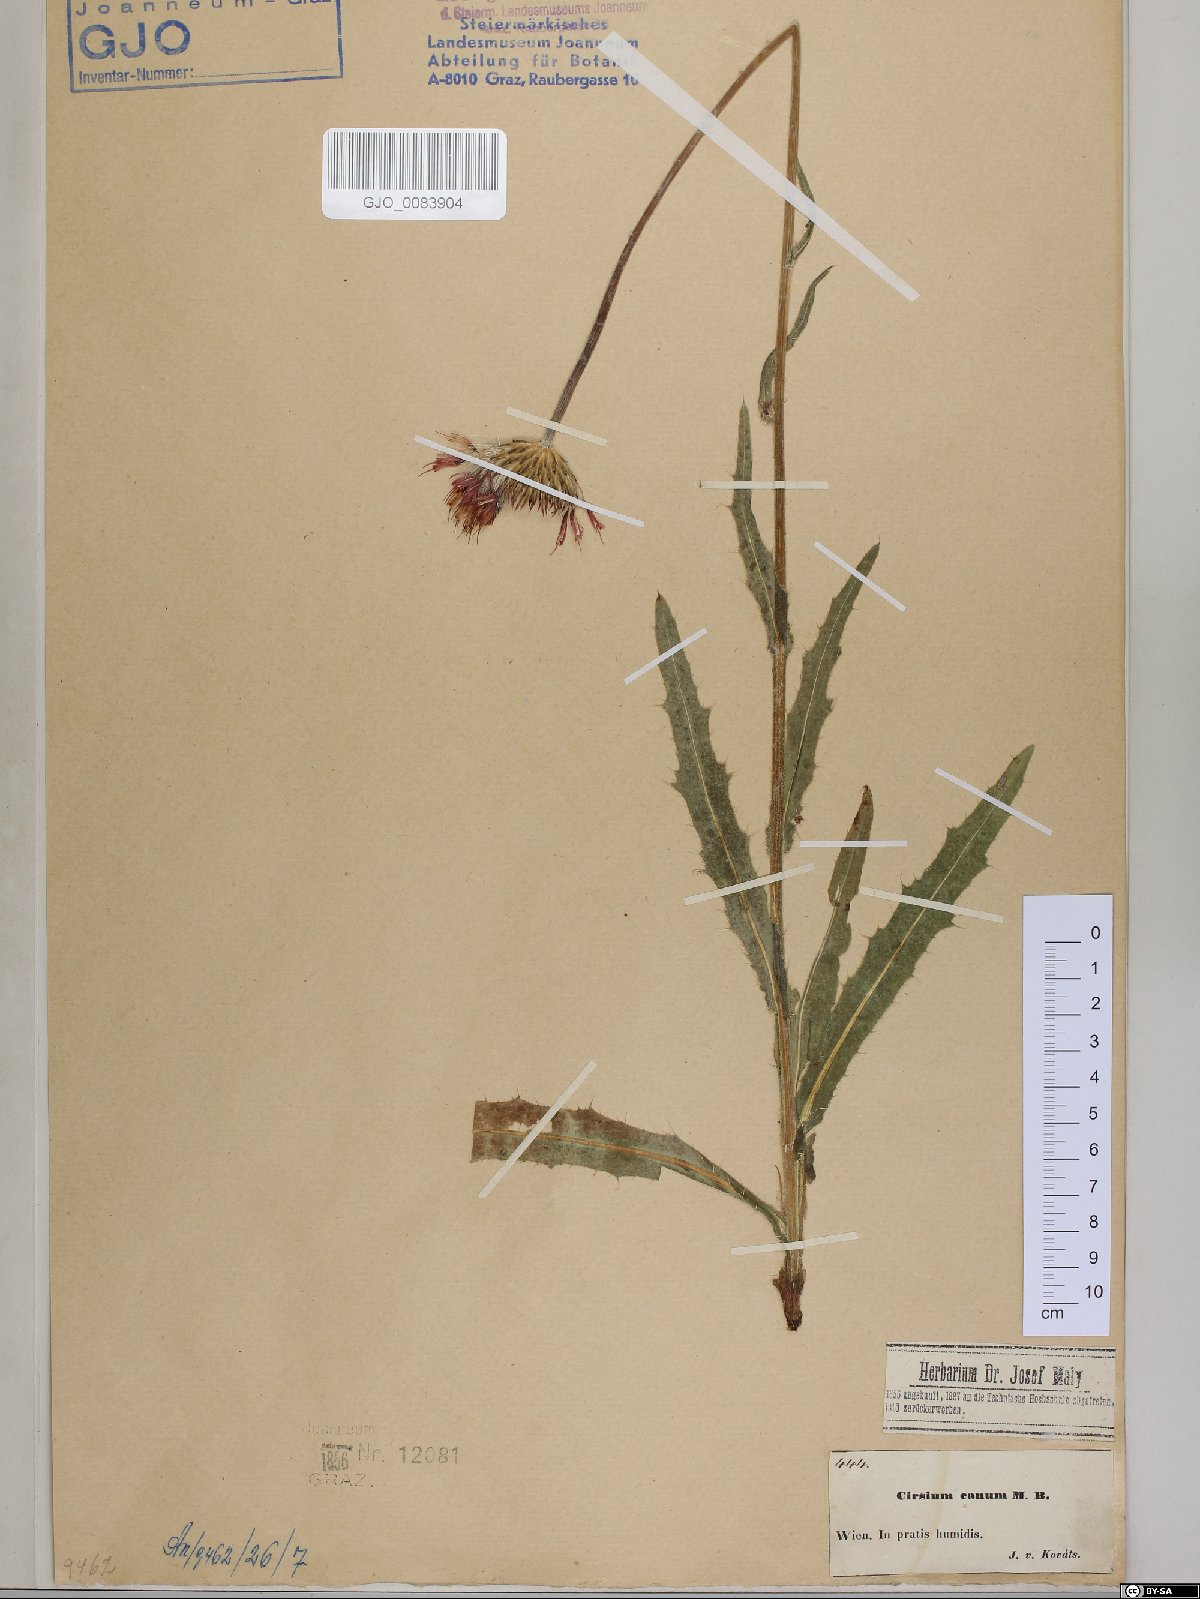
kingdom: Plantae
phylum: Tracheophyta
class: Magnoliopsida
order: Asterales
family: Asteraceae
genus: Cirsium
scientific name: Cirsium canum
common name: Queen anne's thistle
